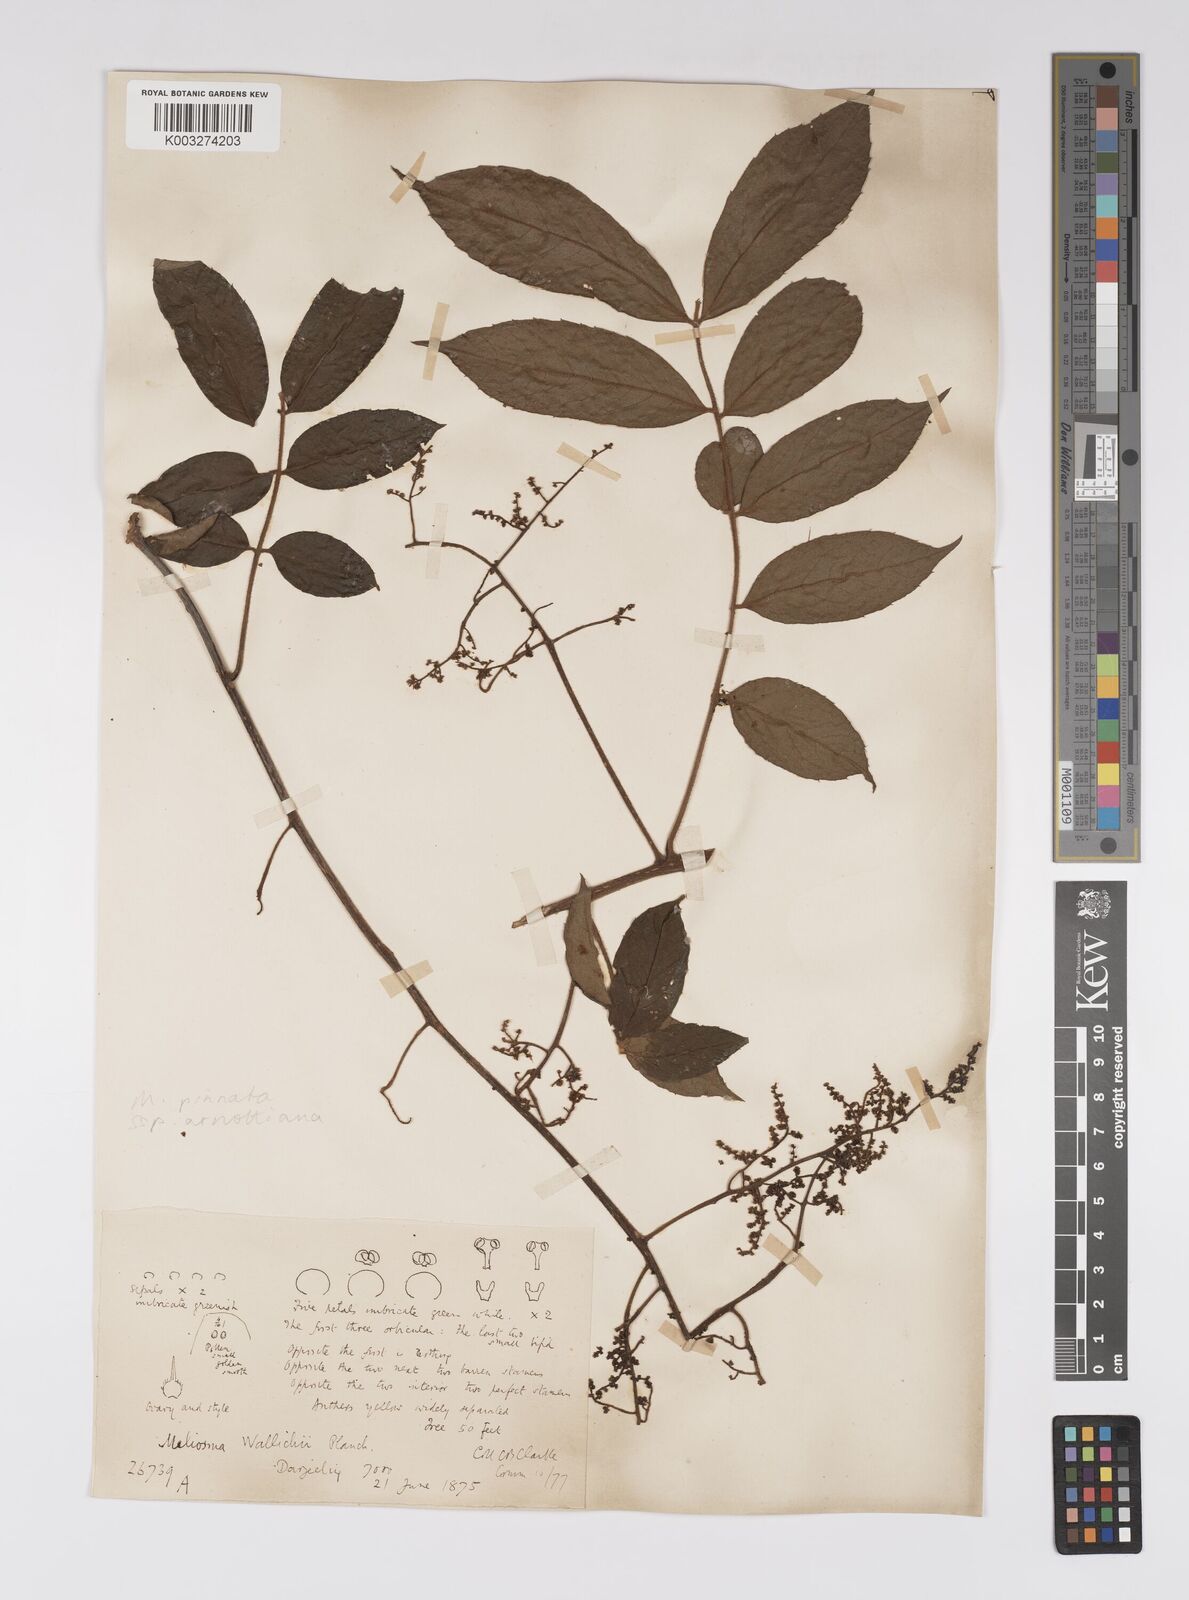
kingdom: Plantae
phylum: Tracheophyta
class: Magnoliopsida
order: Proteales
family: Sabiaceae
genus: Meliosma
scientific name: Meliosma rhoifolia
